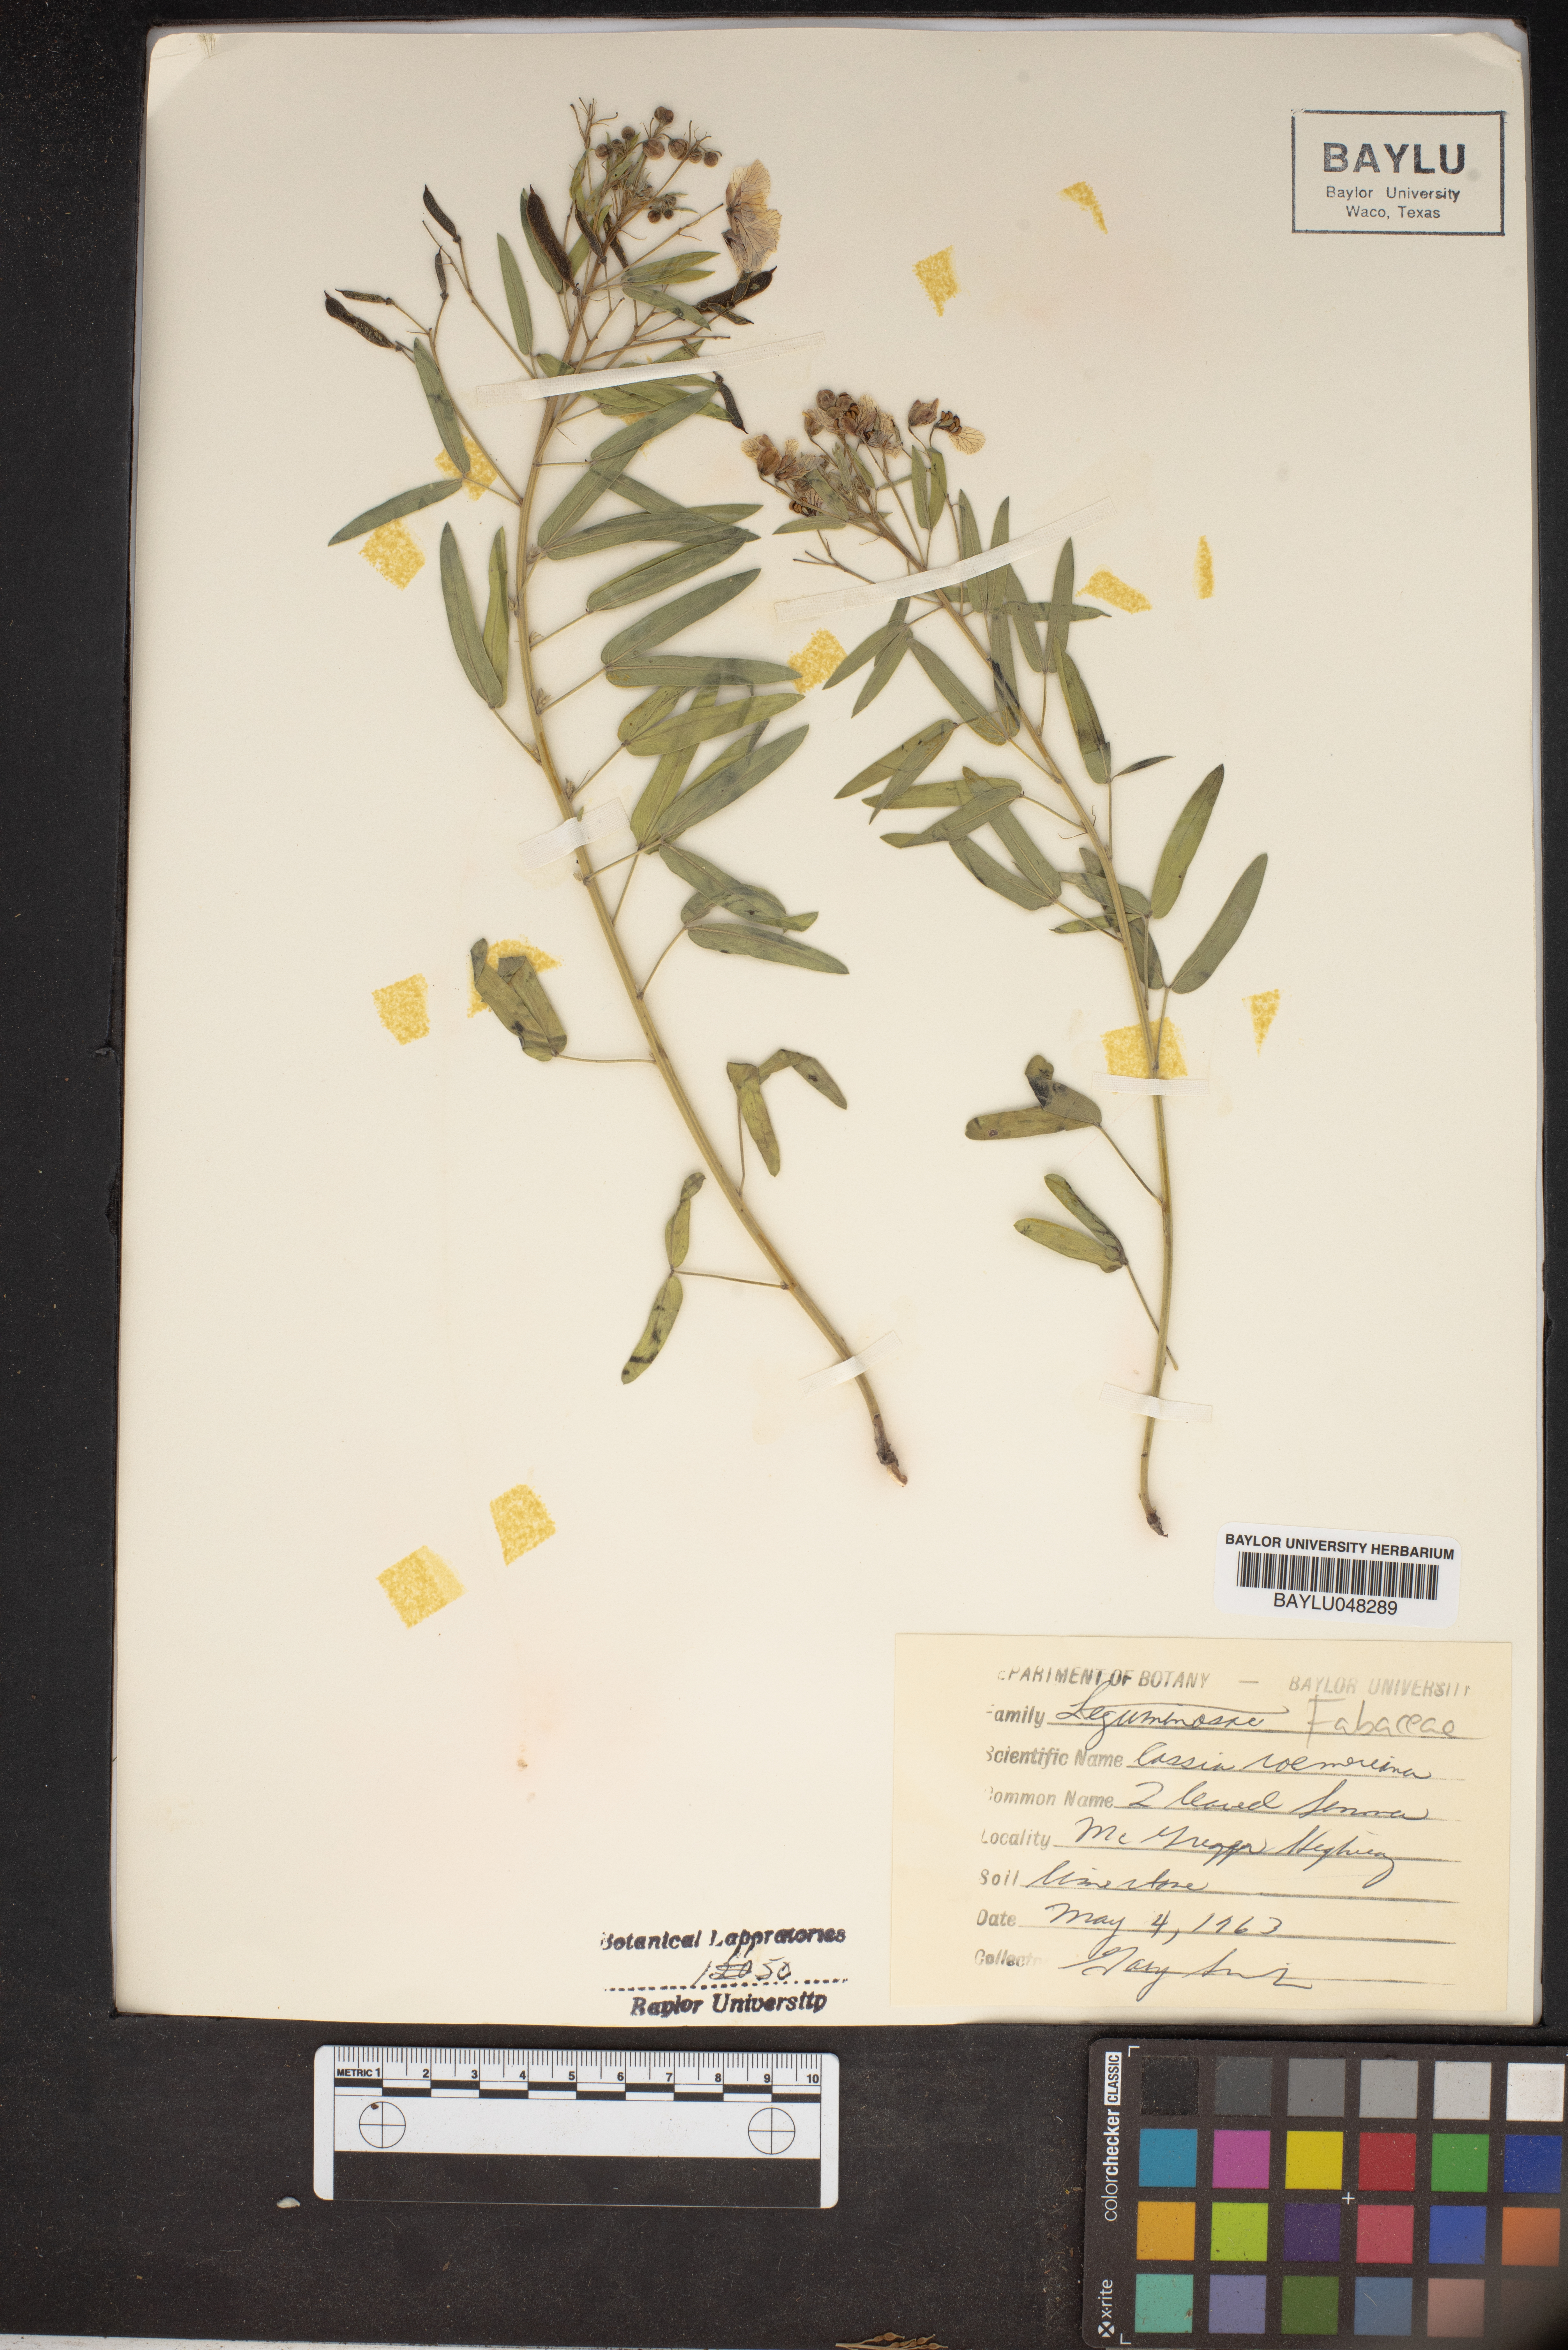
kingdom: Plantae
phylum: Tracheophyta
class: Magnoliopsida
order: Fabales
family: Fabaceae
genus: Senna
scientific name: Senna roemeriana
